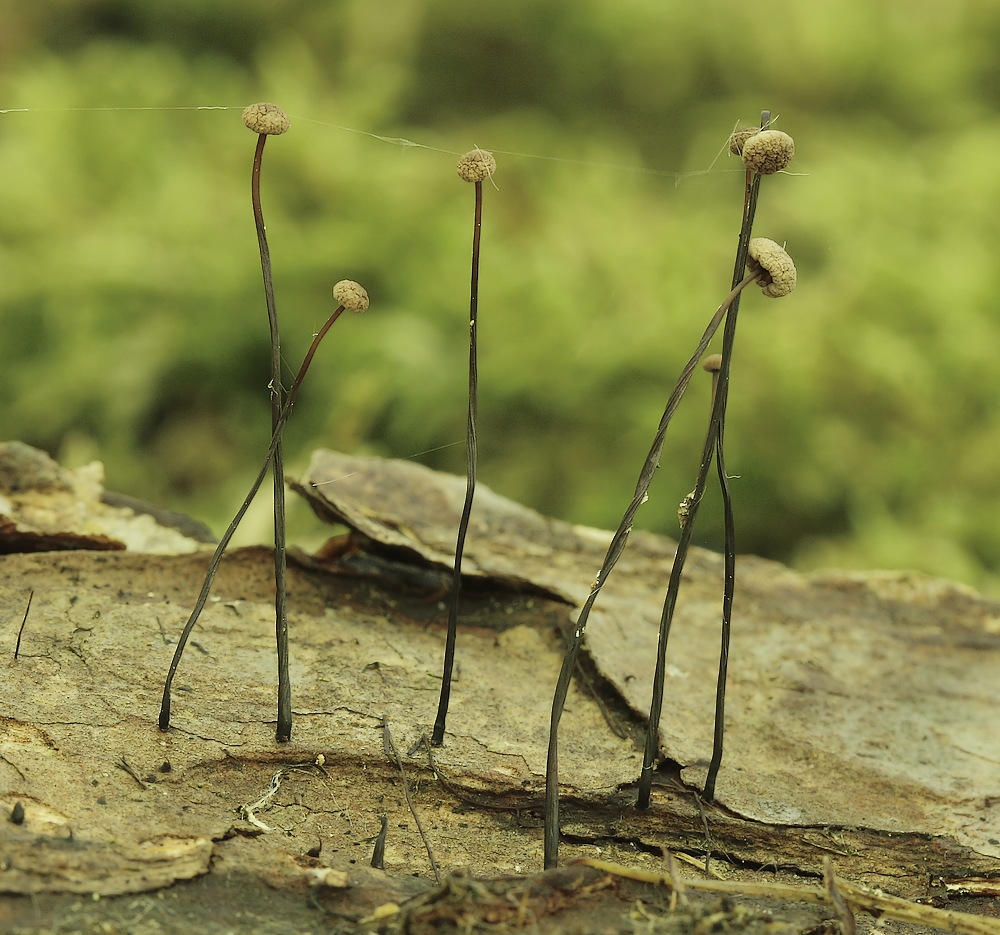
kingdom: Fungi
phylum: Basidiomycota
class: Agaricomycetes
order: Agaricales
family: Omphalotaceae
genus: Gymnopus
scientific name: Gymnopus androsaceus
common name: trådstokket fladhat
